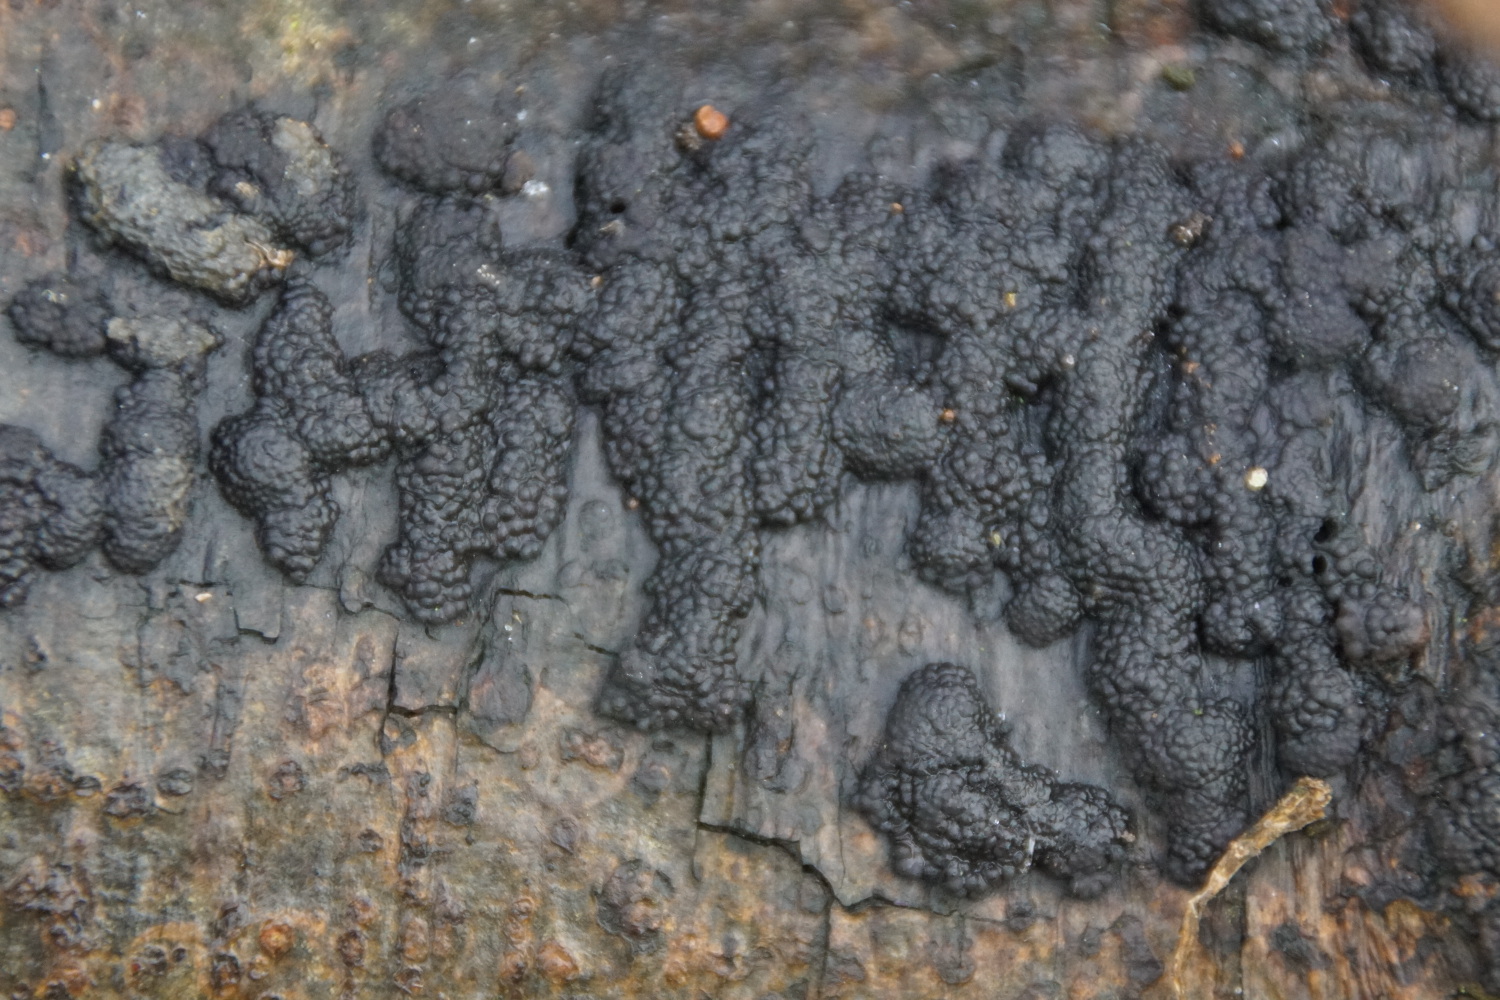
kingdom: Fungi
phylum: Ascomycota
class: Sordariomycetes
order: Xylariales
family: Hypoxylaceae
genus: Jackrogersella
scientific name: Jackrogersella multiformis
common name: foranderlig kulbær
